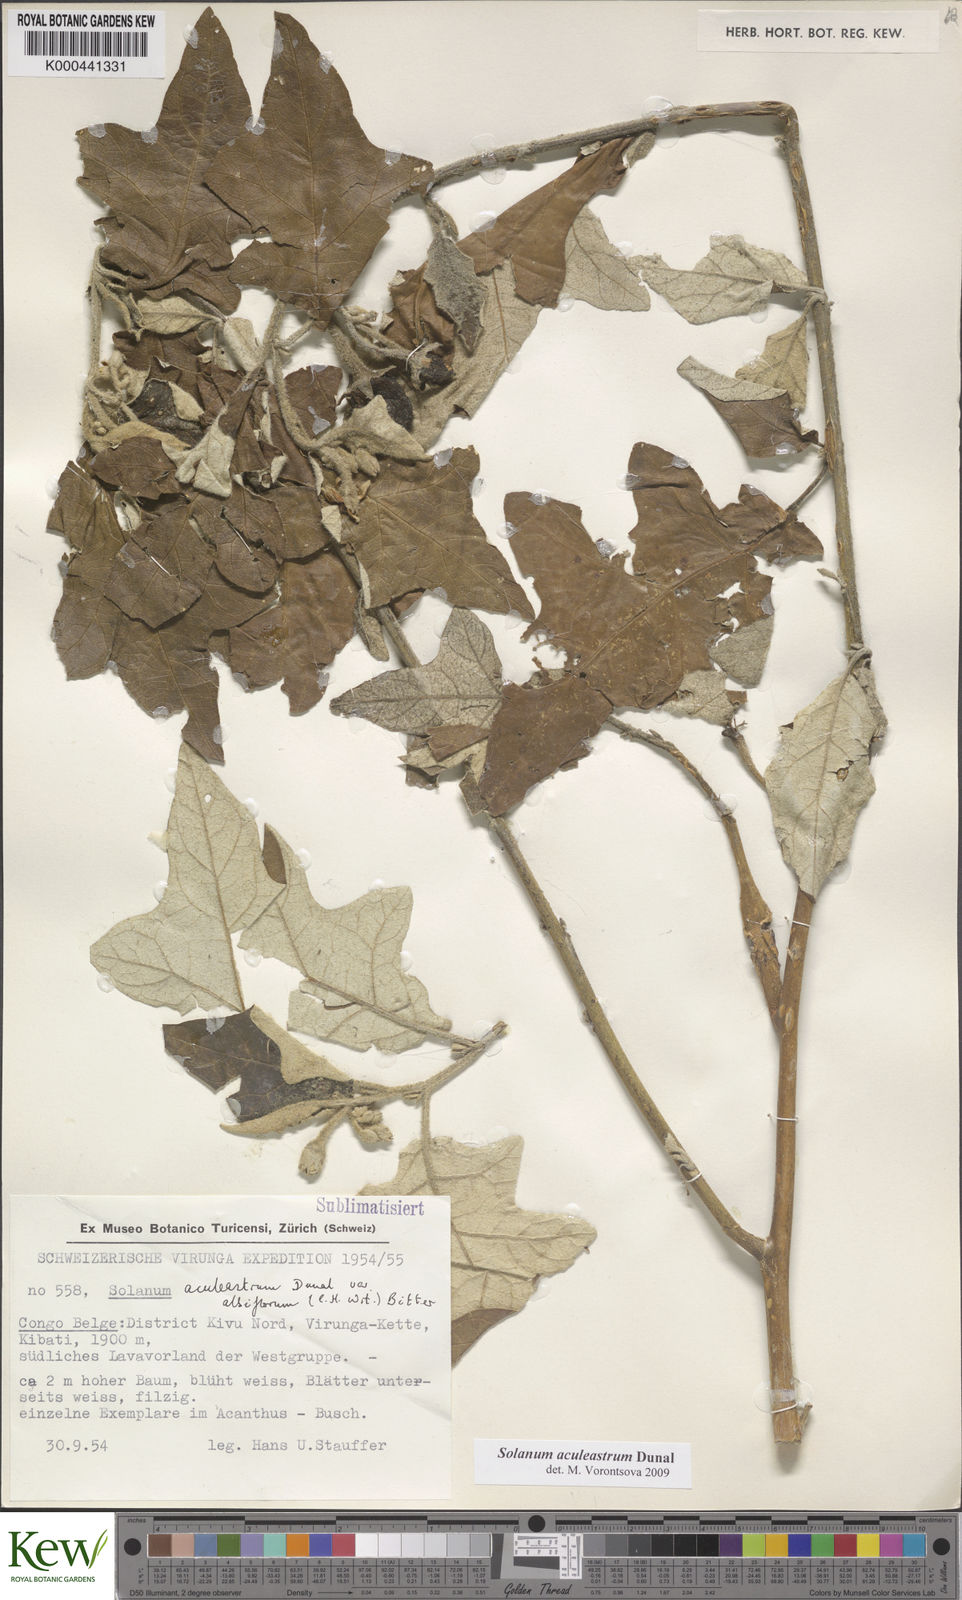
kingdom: Plantae
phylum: Tracheophyta
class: Magnoliopsida
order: Solanales
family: Solanaceae
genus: Solanum
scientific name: Solanum aculeastrum
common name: Goat bitter-apple
